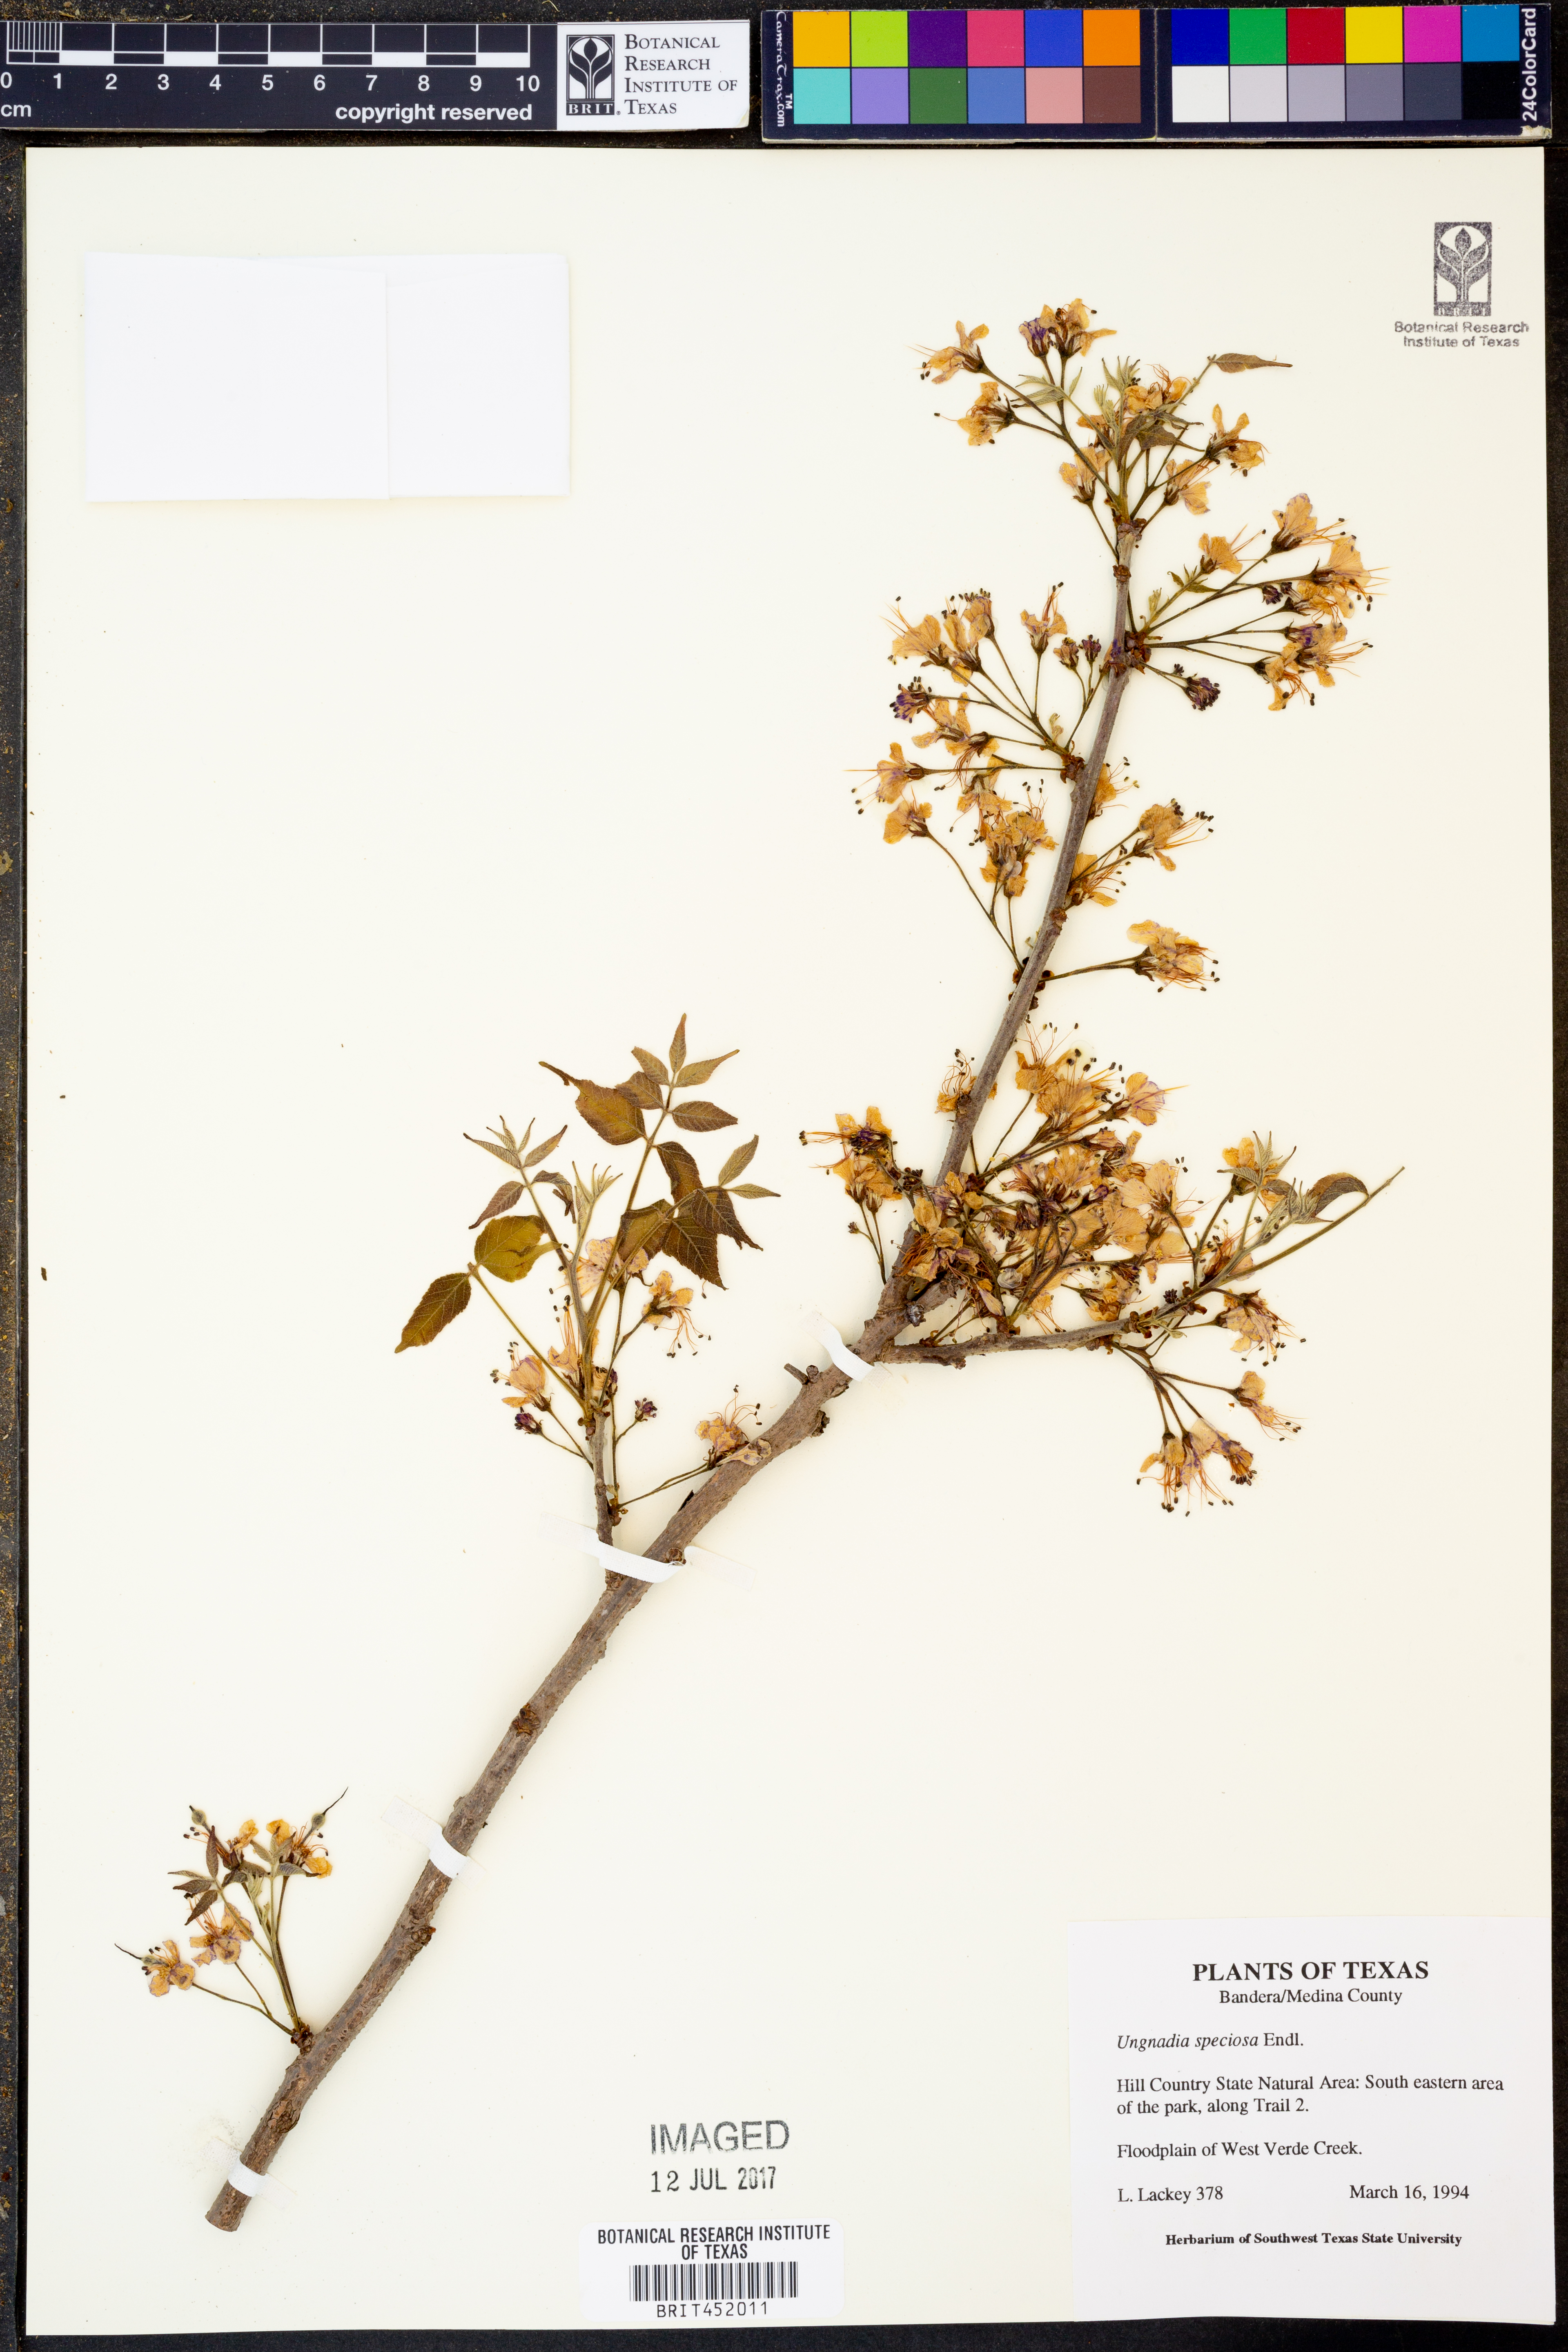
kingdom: Plantae
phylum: Tracheophyta
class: Magnoliopsida
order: Sapindales
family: Sapindaceae
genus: Ungnadia
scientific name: Ungnadia speciosa
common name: Texas-buckeye
